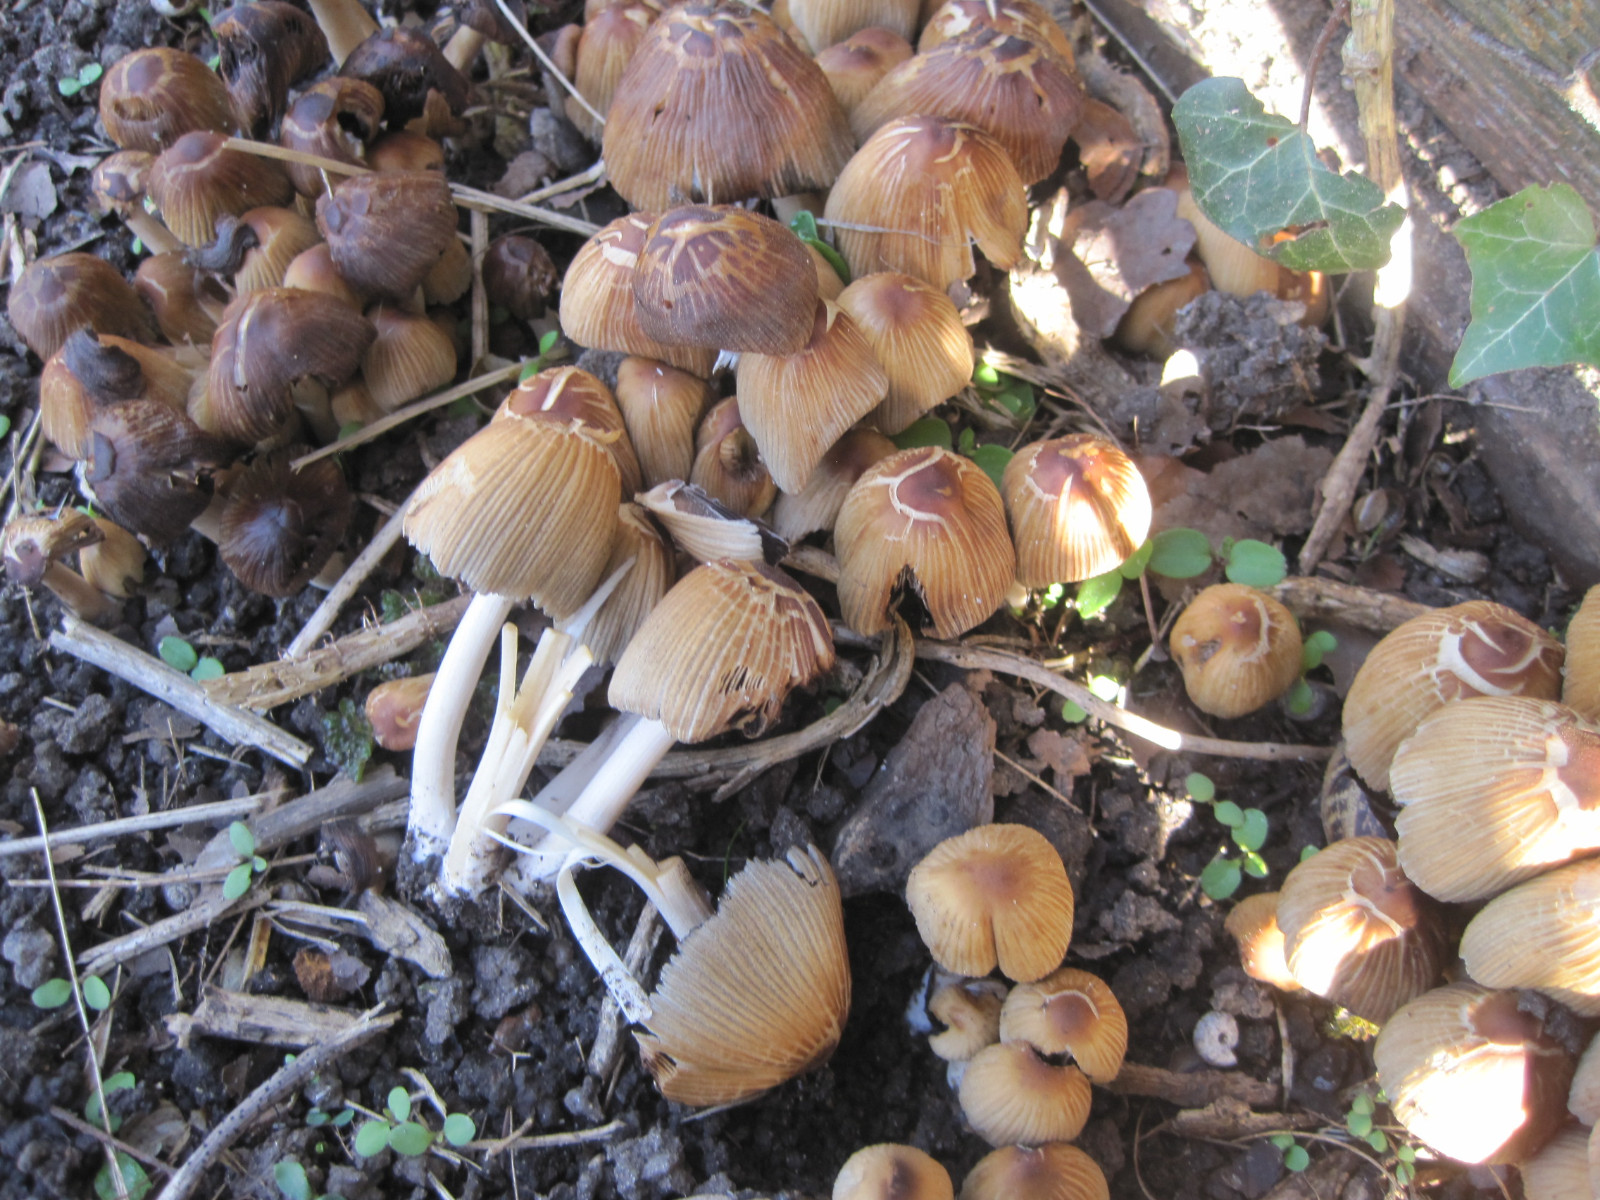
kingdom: Fungi
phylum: Basidiomycota
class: Agaricomycetes
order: Agaricales
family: Psathyrellaceae
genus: Coprinellus
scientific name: Coprinellus micaceus
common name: glimmer-blækhat
